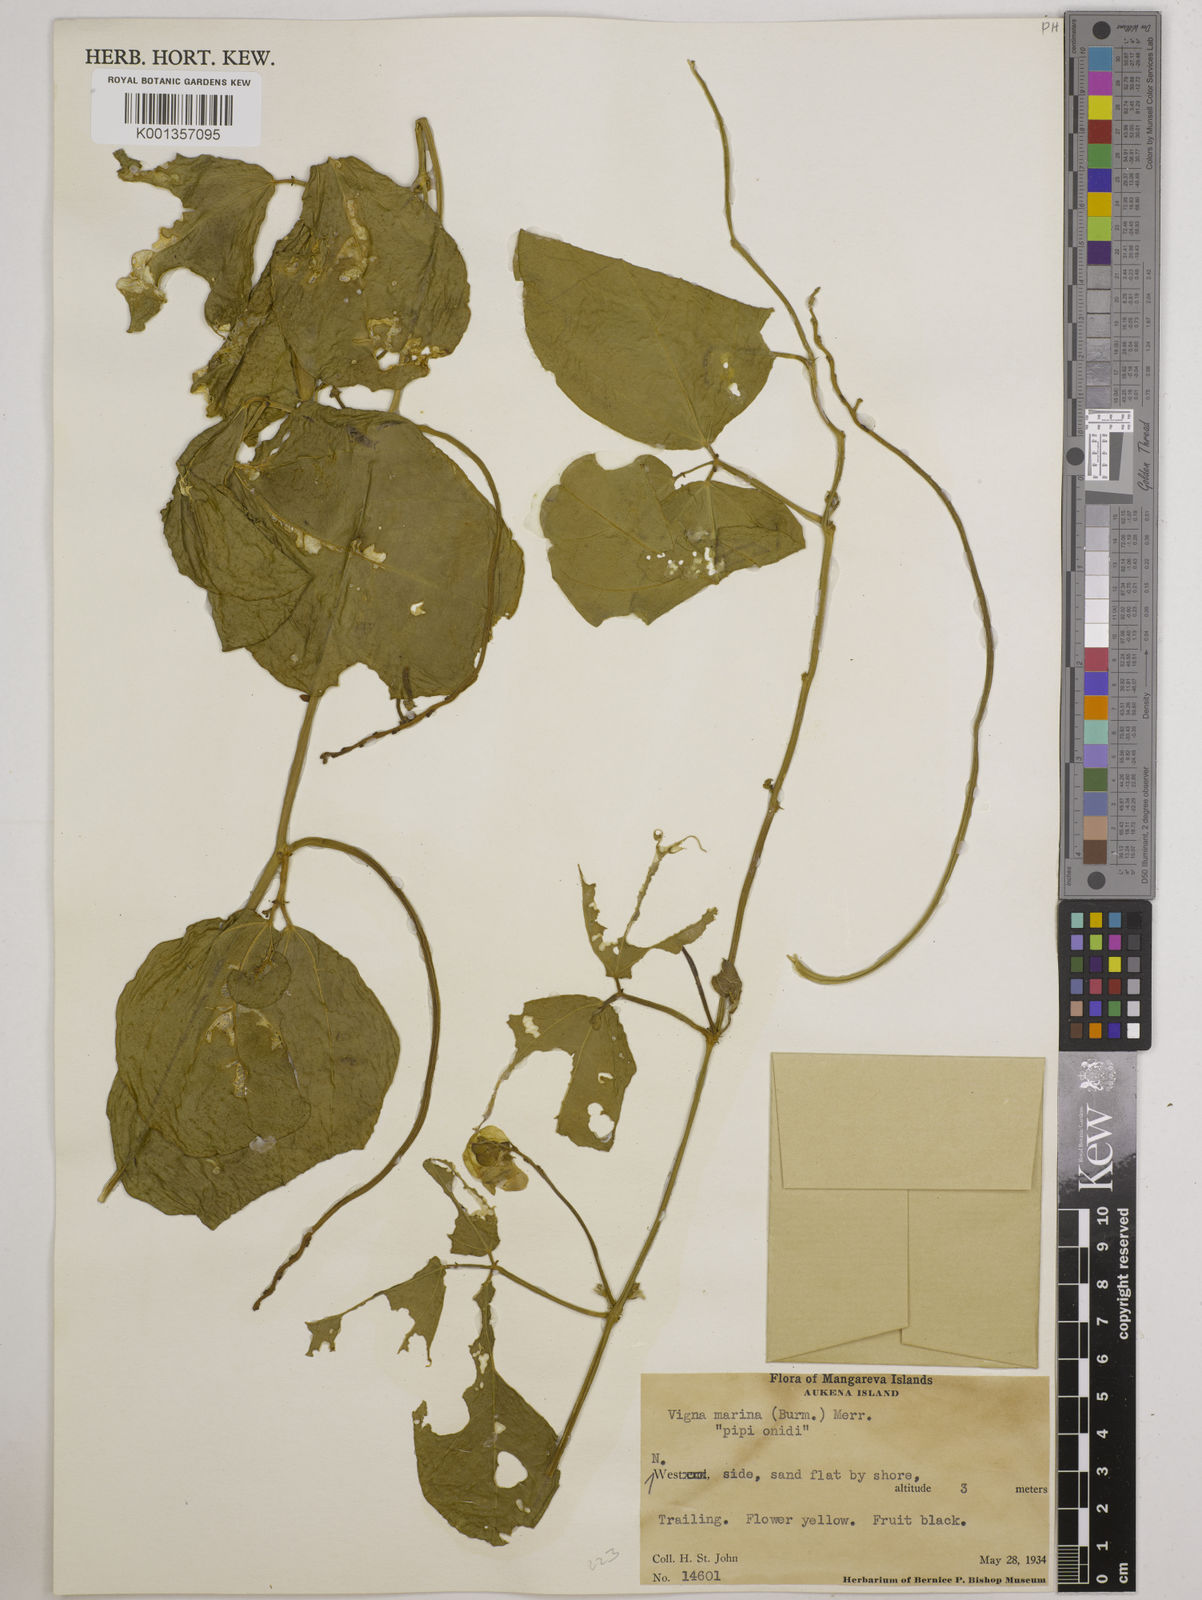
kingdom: Plantae
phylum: Tracheophyta
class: Magnoliopsida
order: Fabales
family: Fabaceae
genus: Vigna
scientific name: Vigna marina
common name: Dune-bean
